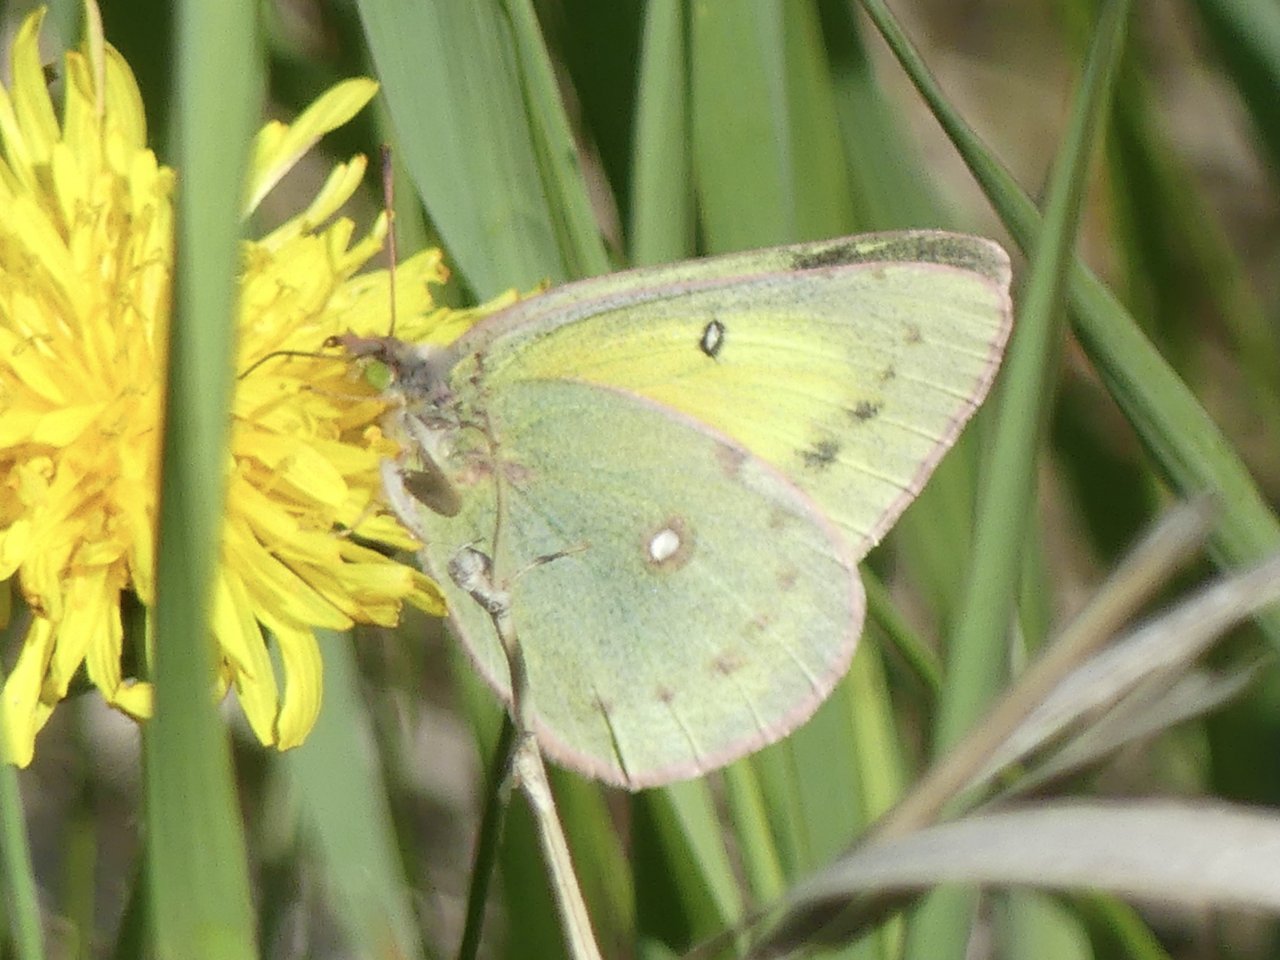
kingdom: Animalia
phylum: Arthropoda
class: Insecta
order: Lepidoptera
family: Pieridae
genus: Colias
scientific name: Colias philodice
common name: Clouded Sulphur
